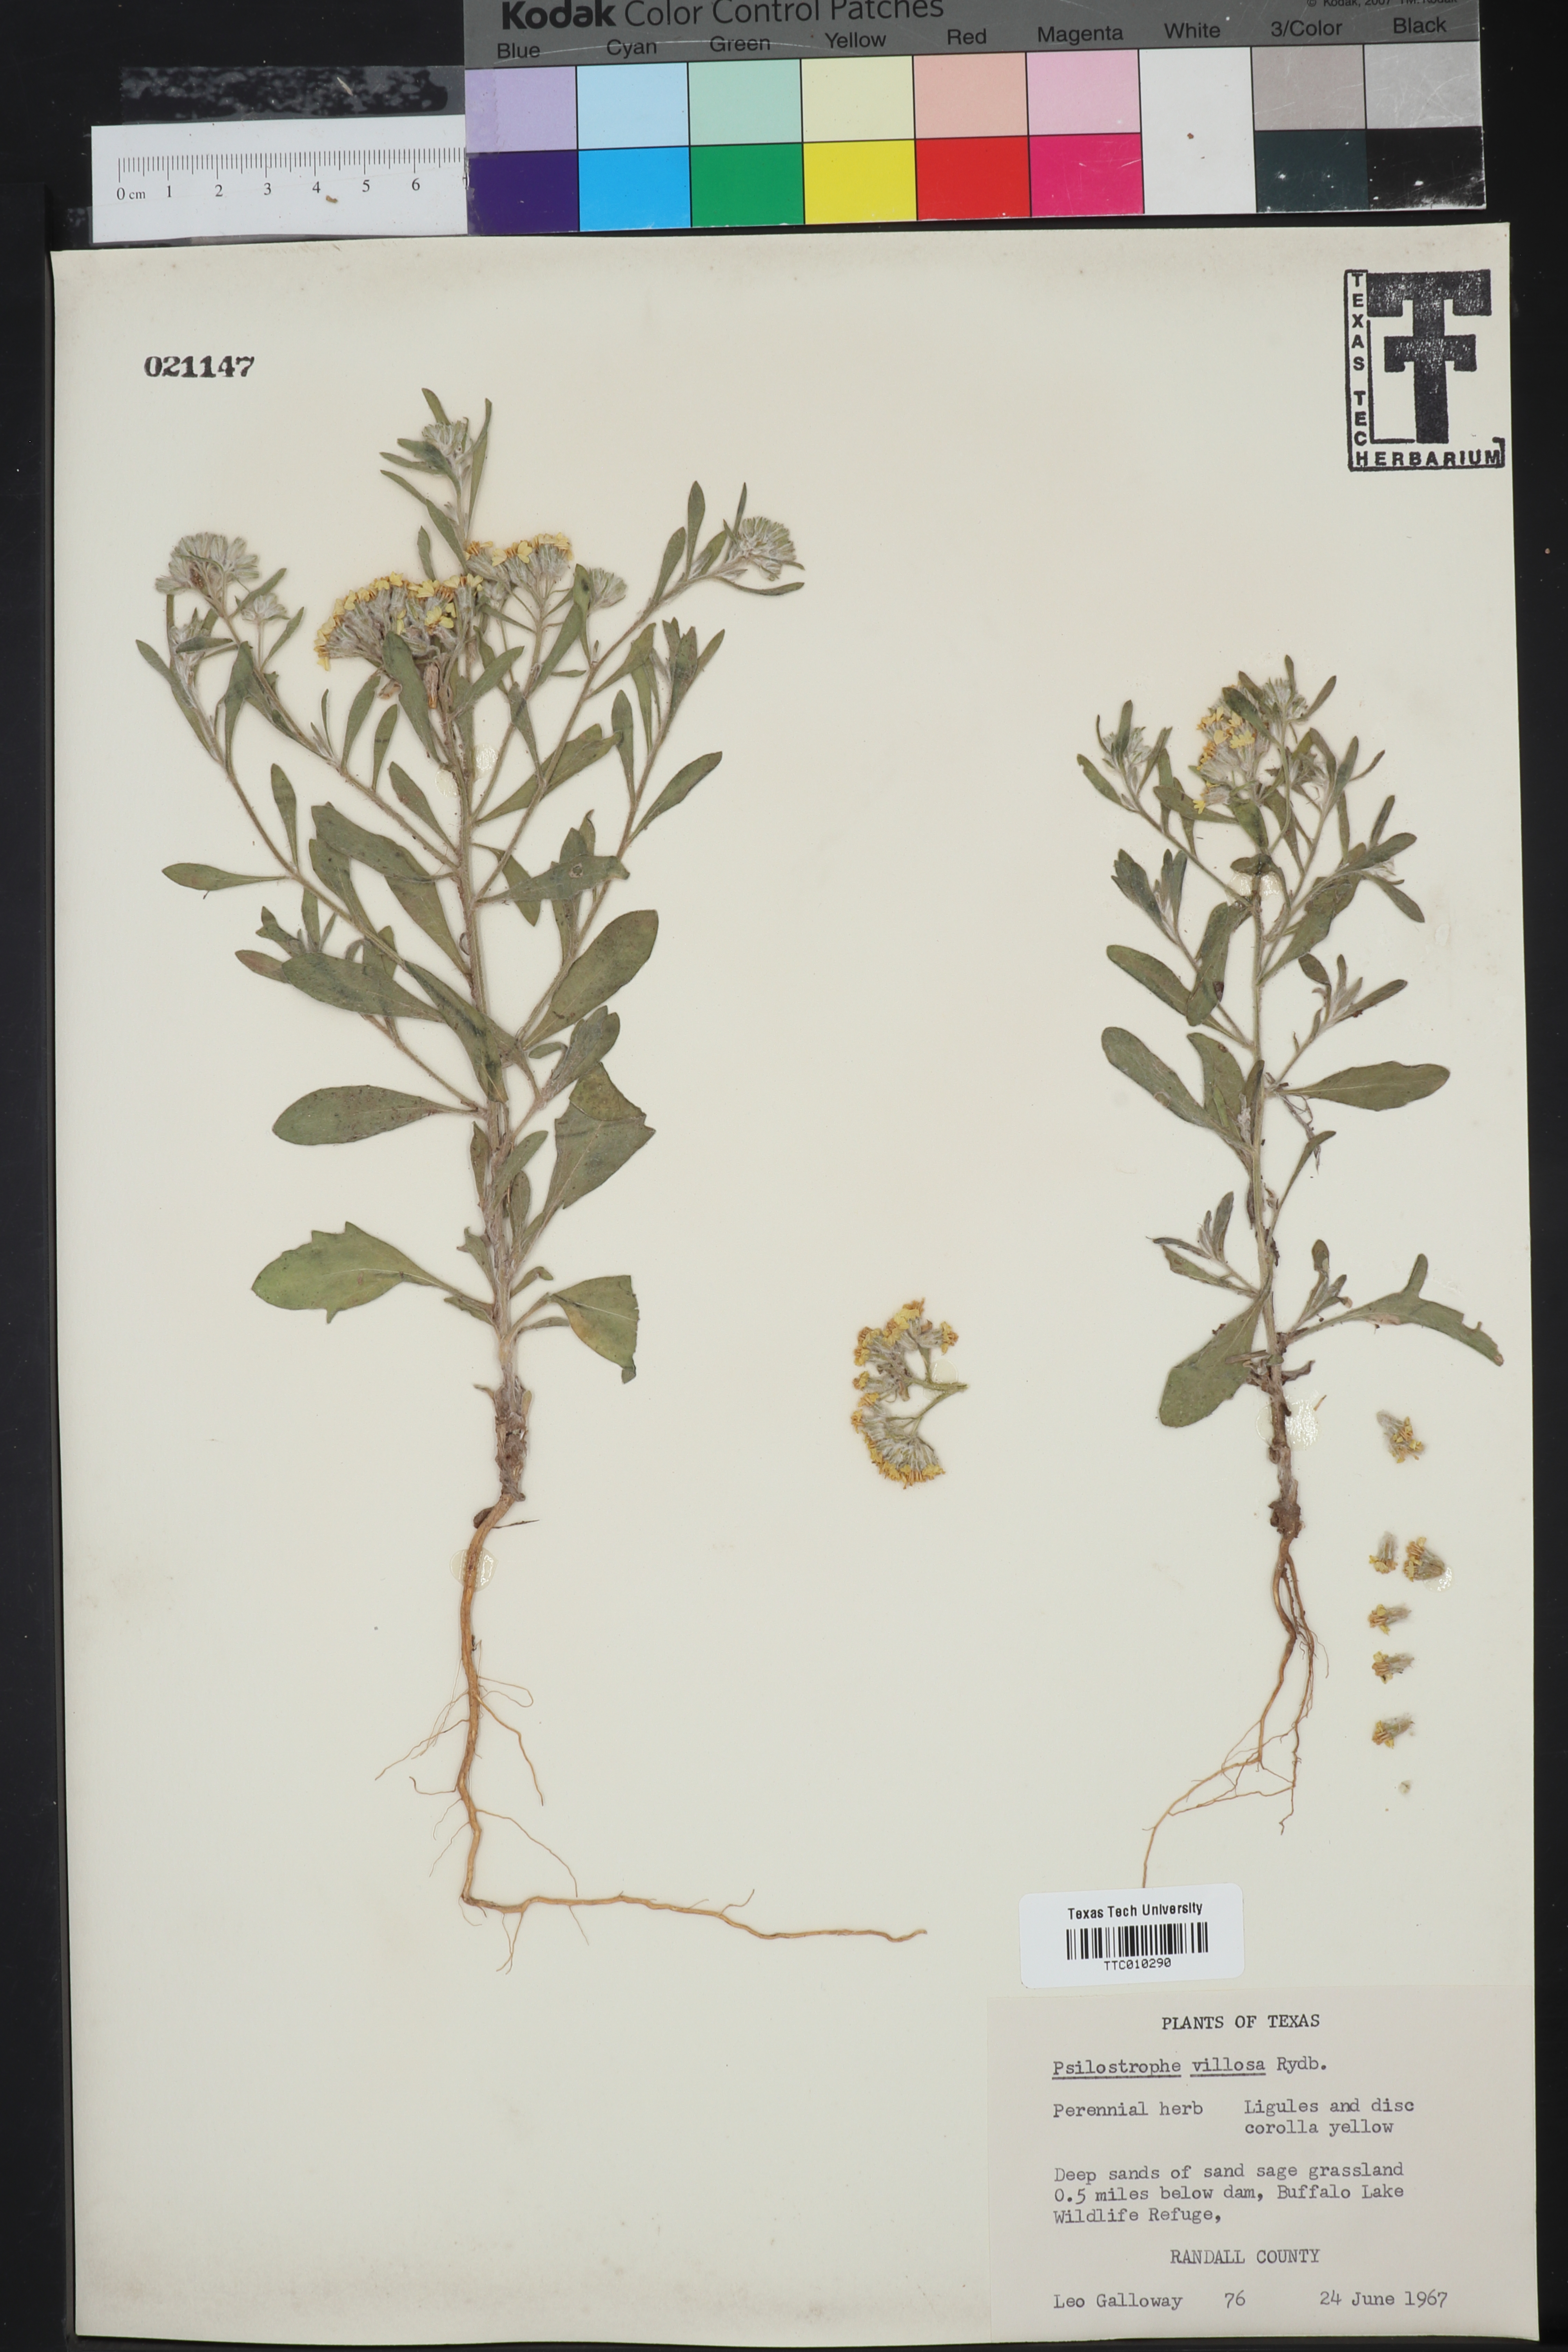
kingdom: Plantae
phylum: Tracheophyta
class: Magnoliopsida
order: Asterales
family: Asteraceae
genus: Psilostrophe
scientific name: Psilostrophe villosa
